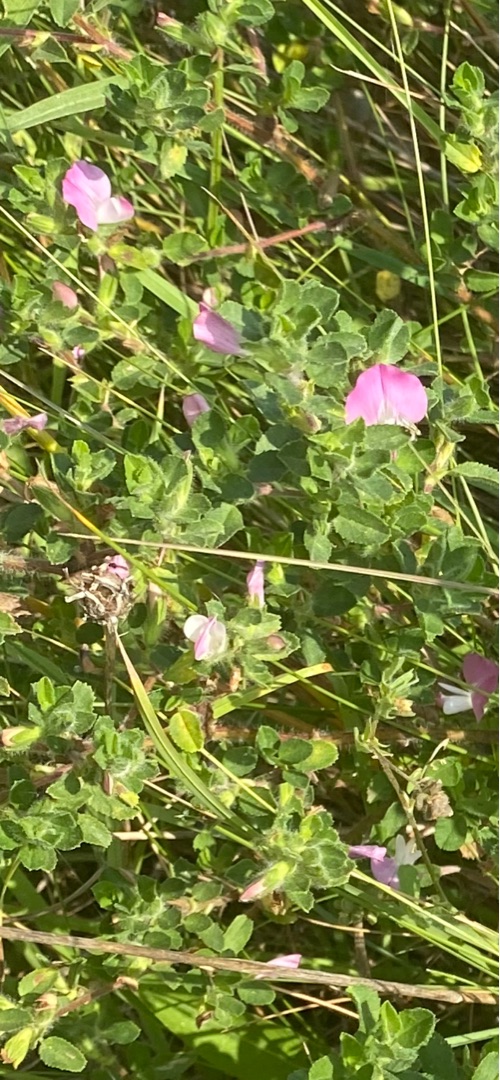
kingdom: Plantae
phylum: Tracheophyta
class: Magnoliopsida
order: Fabales
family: Fabaceae
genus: Ononis
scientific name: Ononis spinosa
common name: Mark-krageklo
